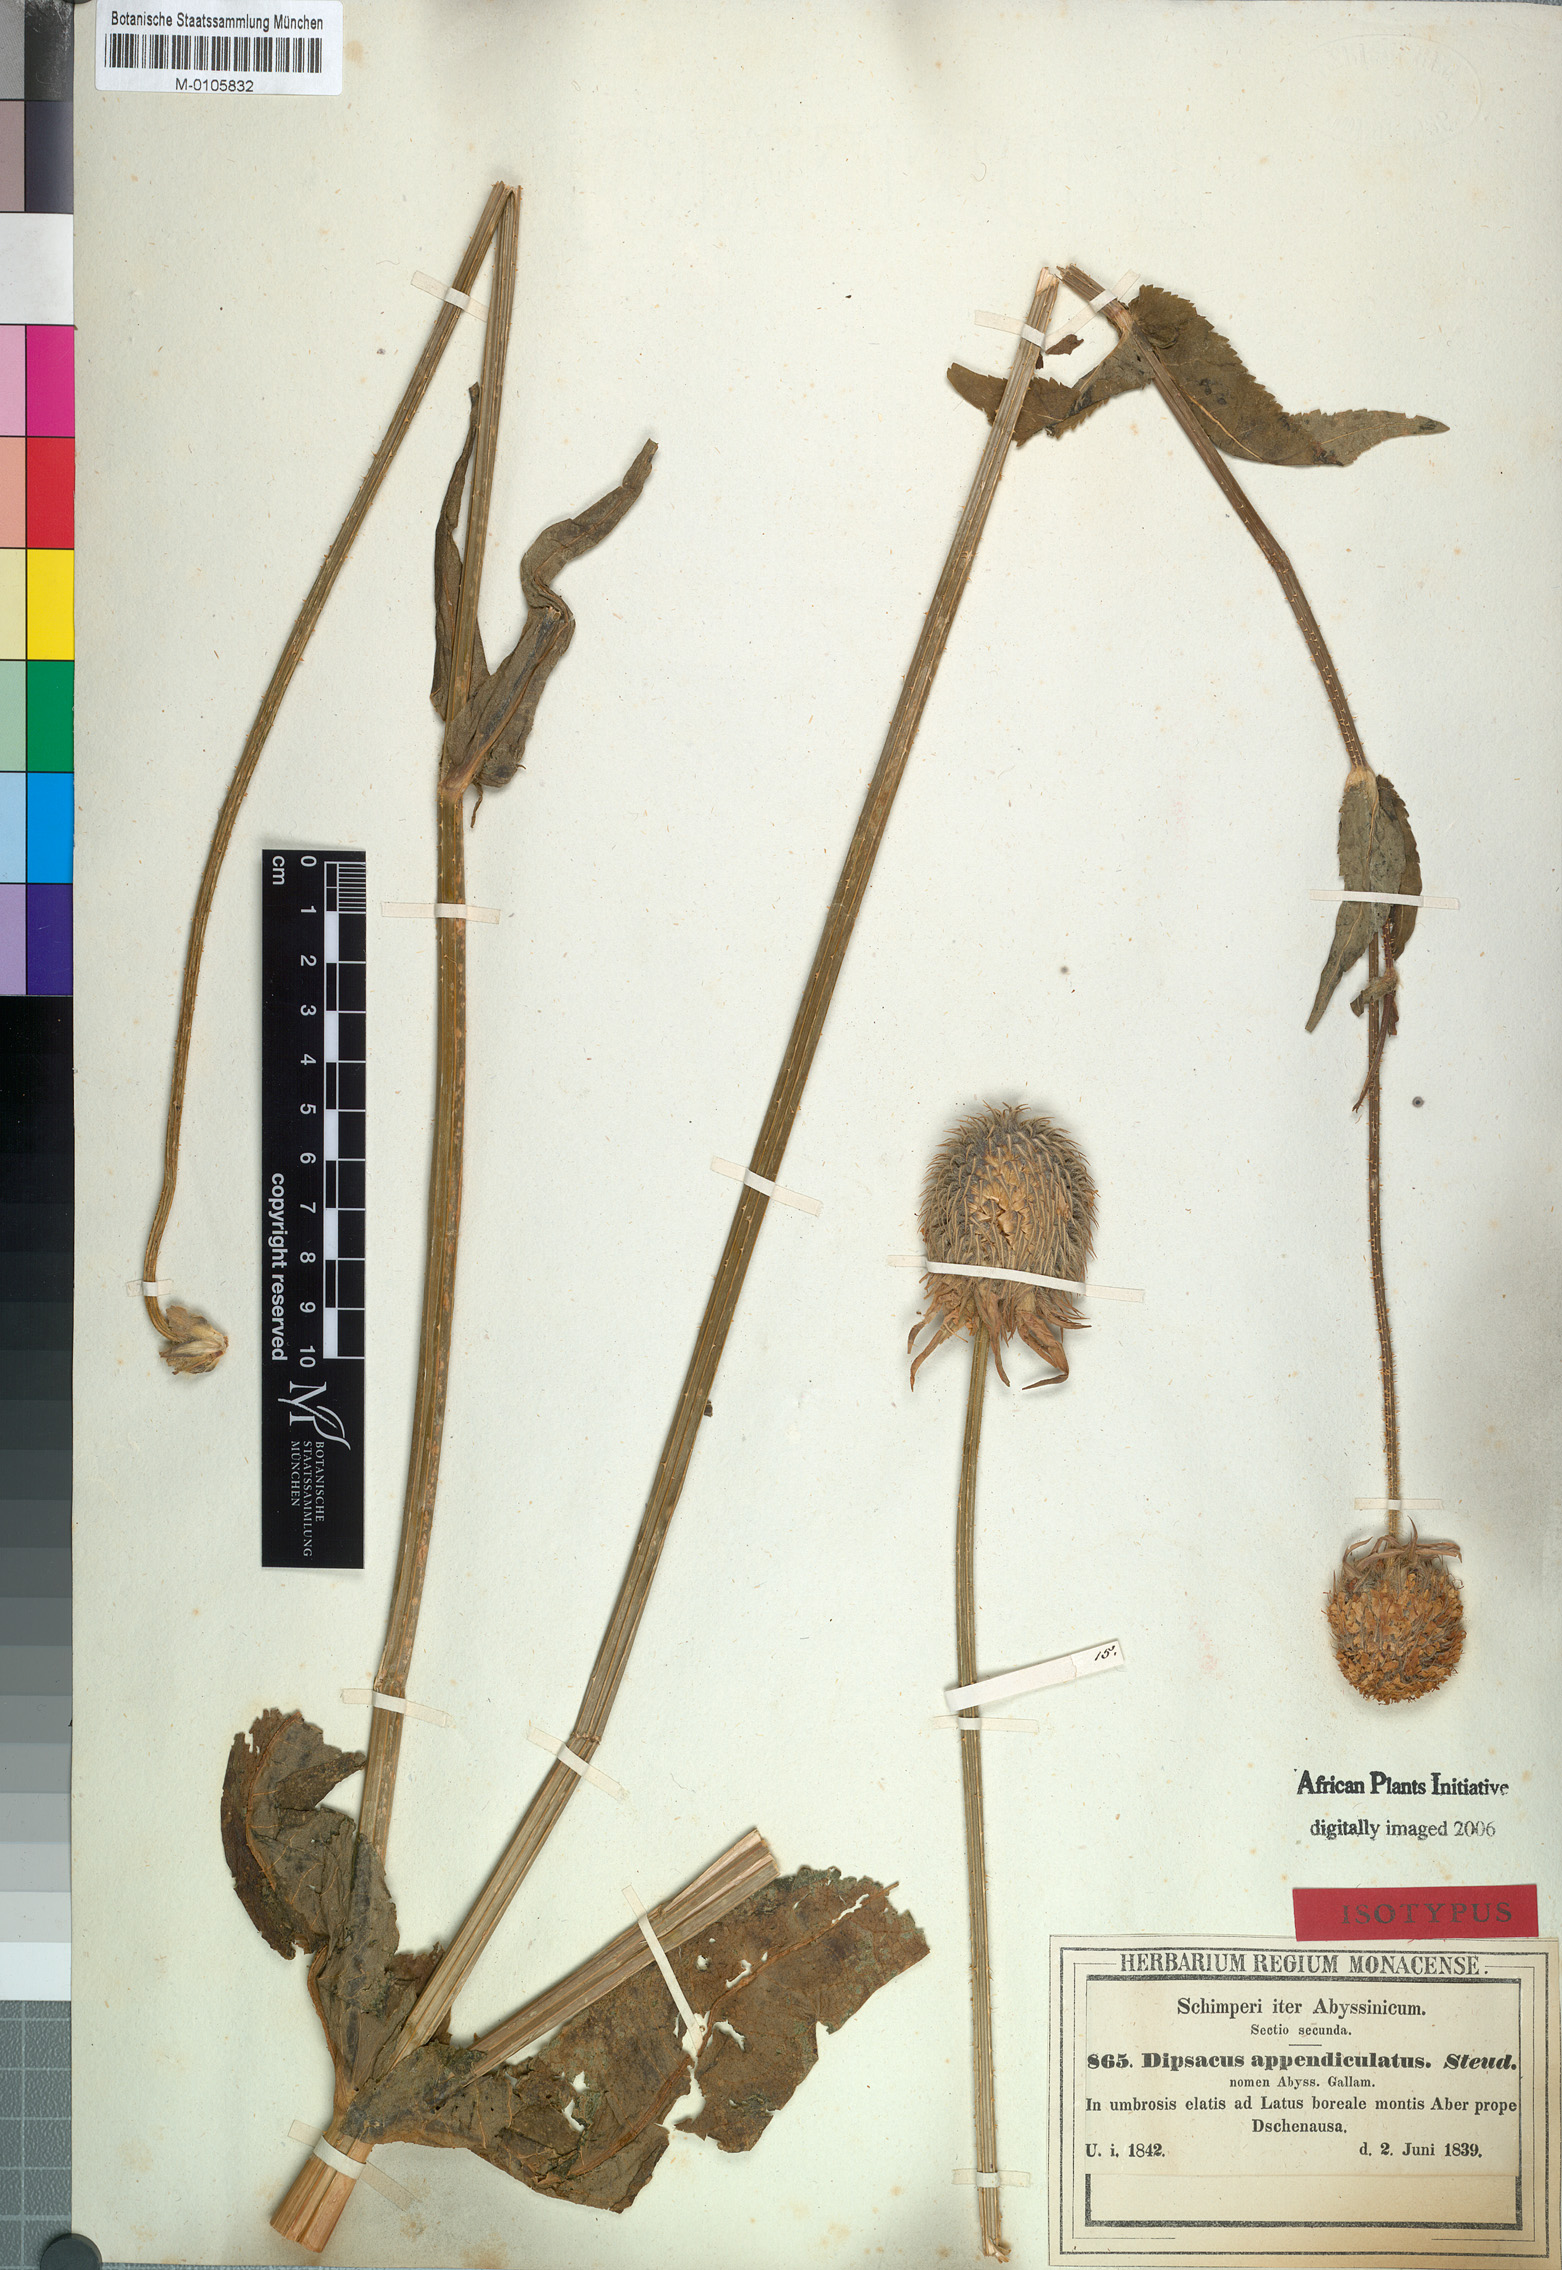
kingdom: Plantae
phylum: Tracheophyta
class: Magnoliopsida
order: Dipsacales
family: Caprifoliaceae
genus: Dipsacus
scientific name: Dipsacus pinnatifidus
